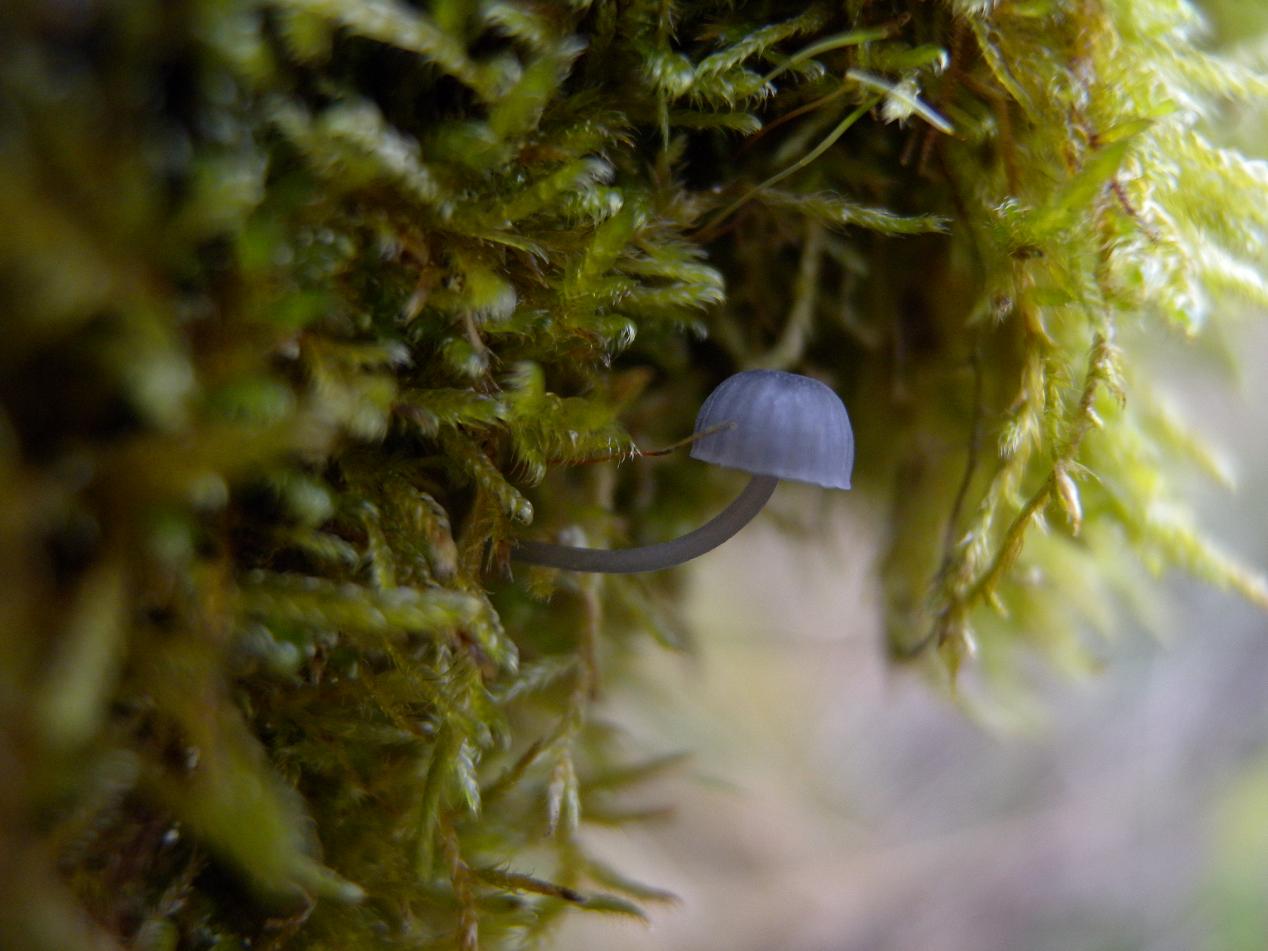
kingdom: Fungi
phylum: Basidiomycota
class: Agaricomycetes
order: Agaricales
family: Mycenaceae
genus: Mycena
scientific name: Mycena pseudocorticola
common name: gråblå bark-huesvamp
